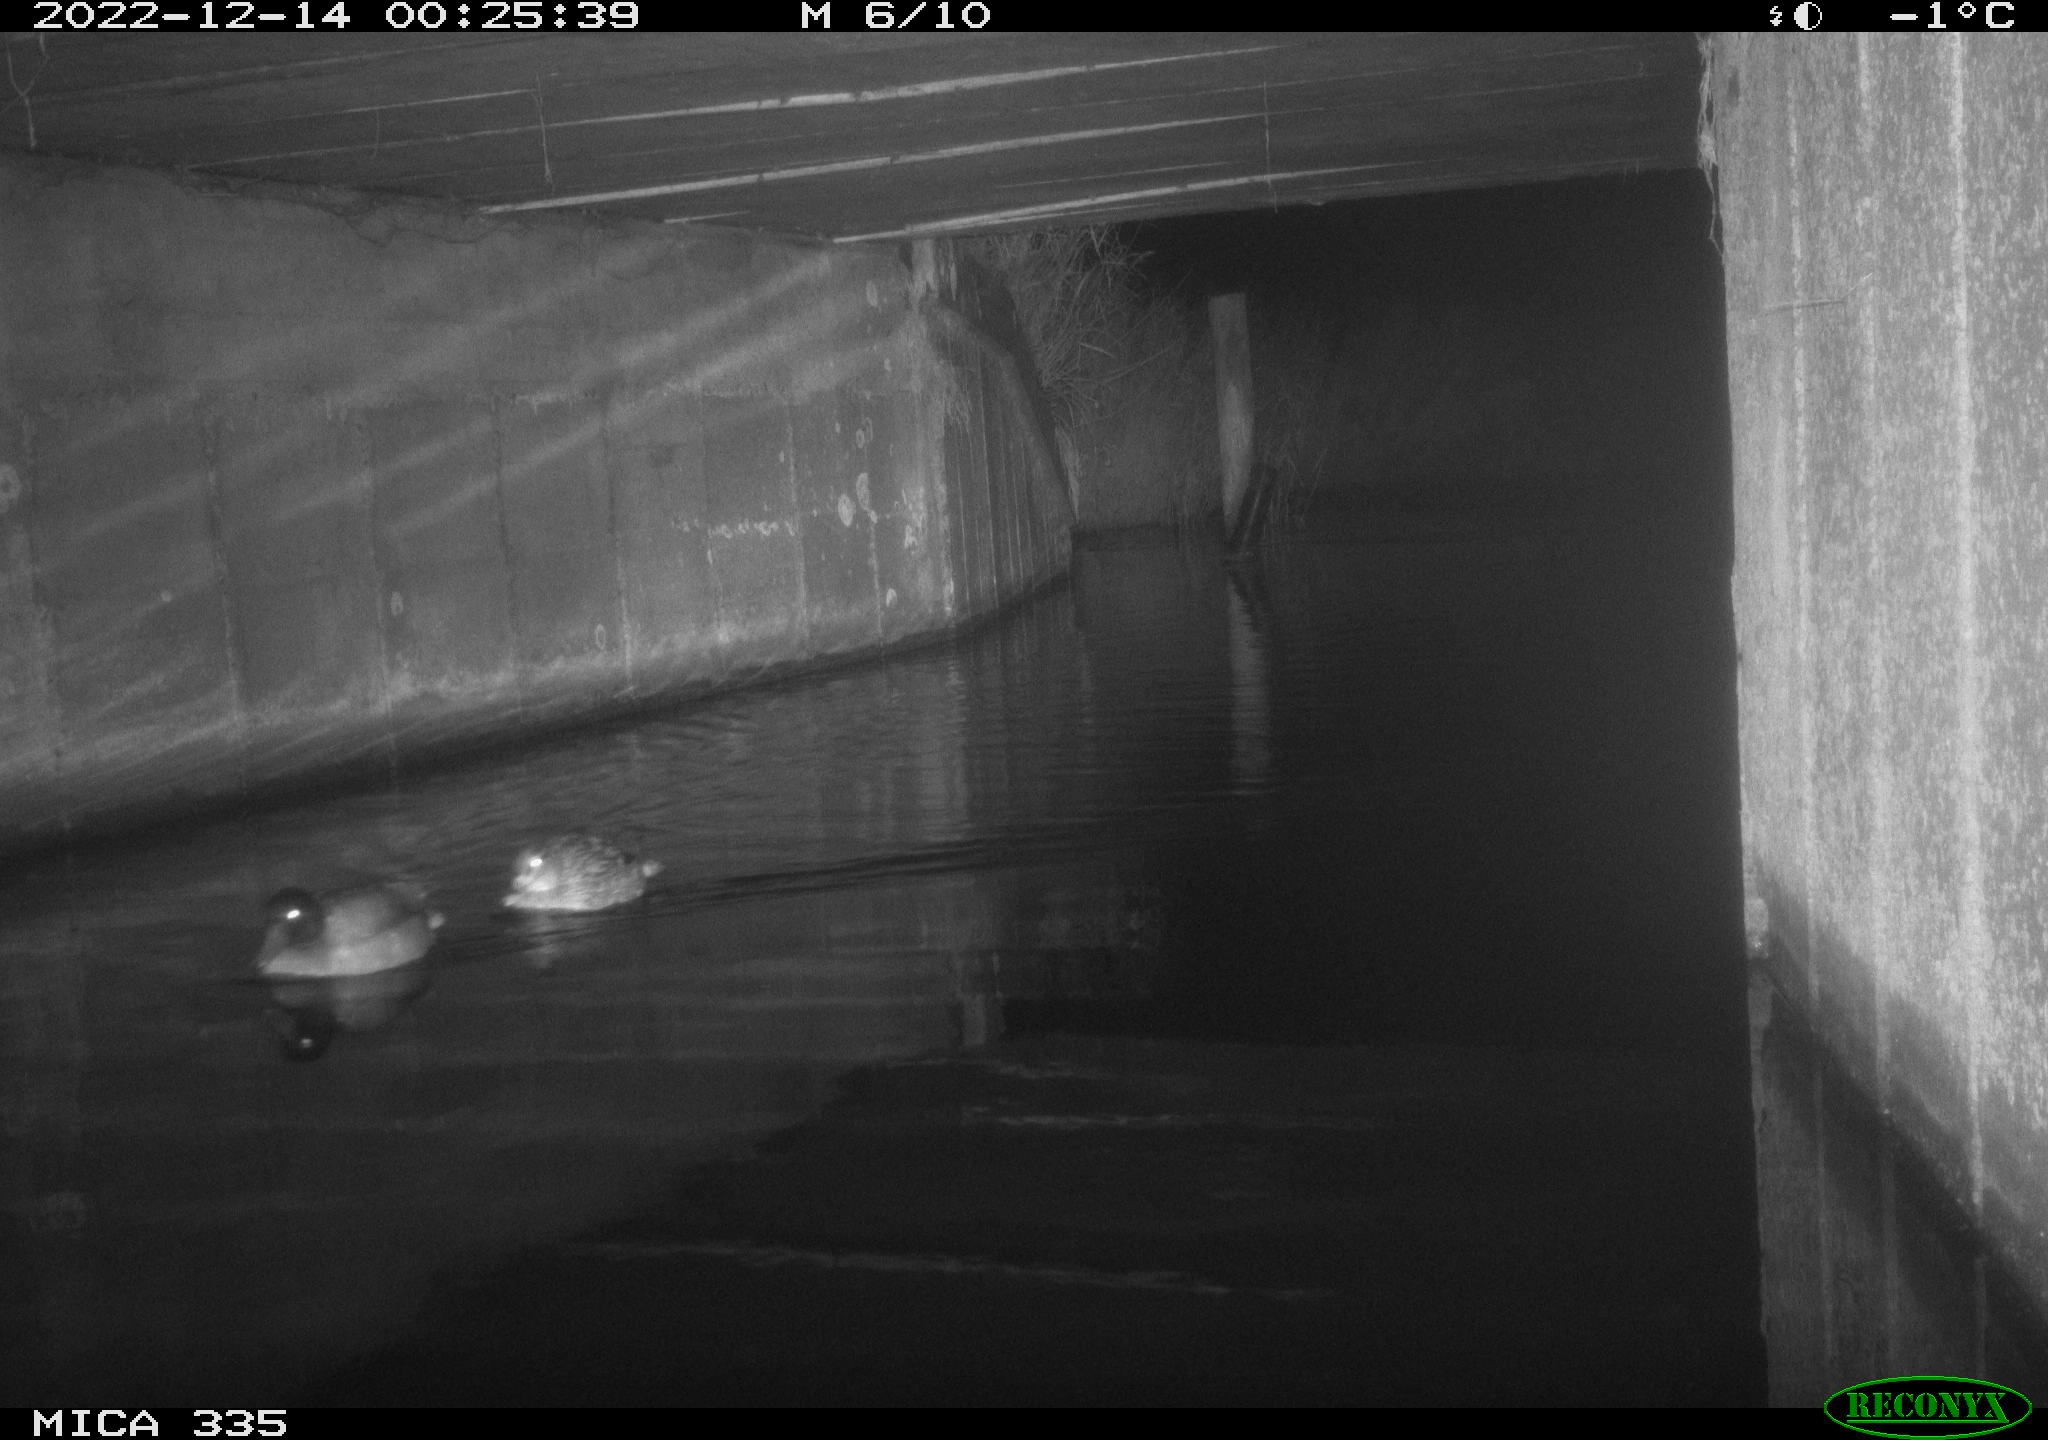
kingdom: Animalia
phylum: Chordata
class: Aves
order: Anseriformes
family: Anatidae
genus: Anas
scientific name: Anas
